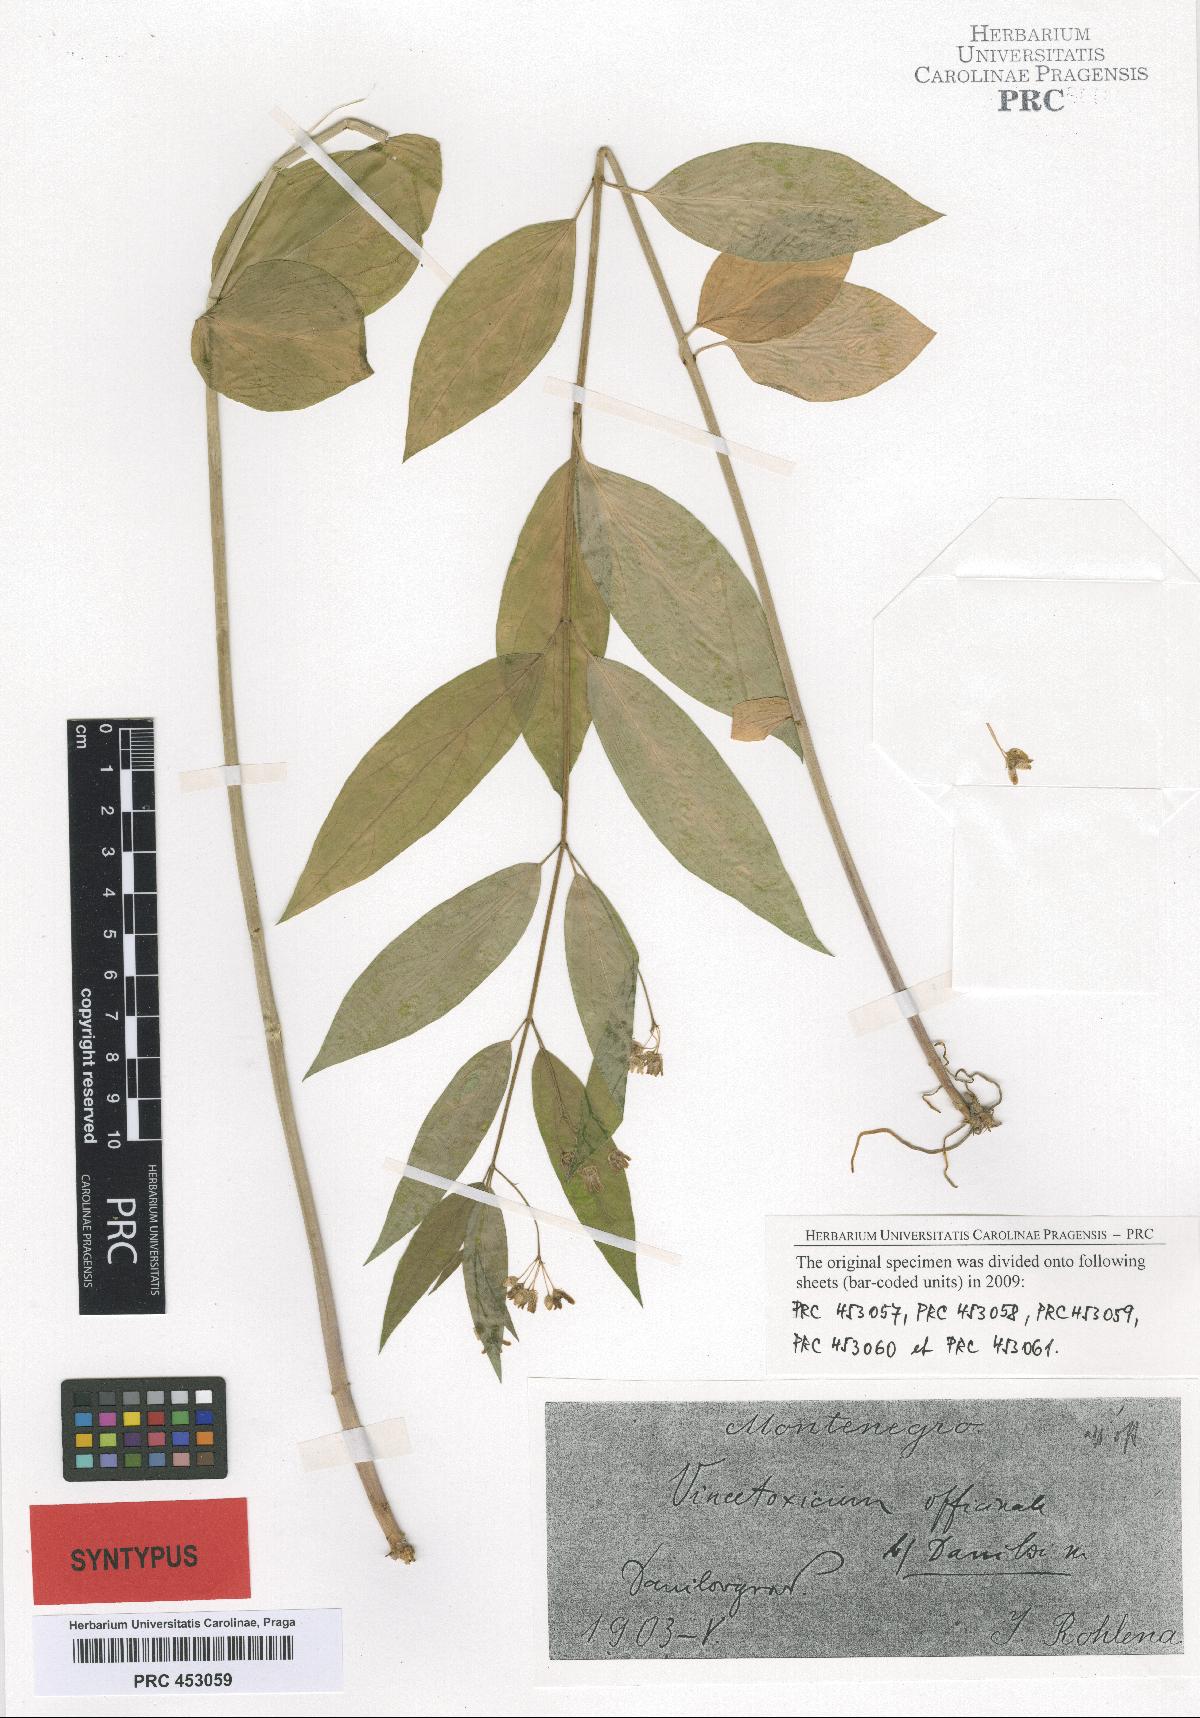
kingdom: Plantae
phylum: Tracheophyta
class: Magnoliopsida
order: Gentianales
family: Apocynaceae
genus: Vincetoxicum
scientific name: Vincetoxicum hirundinaria
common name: White swallowwort
